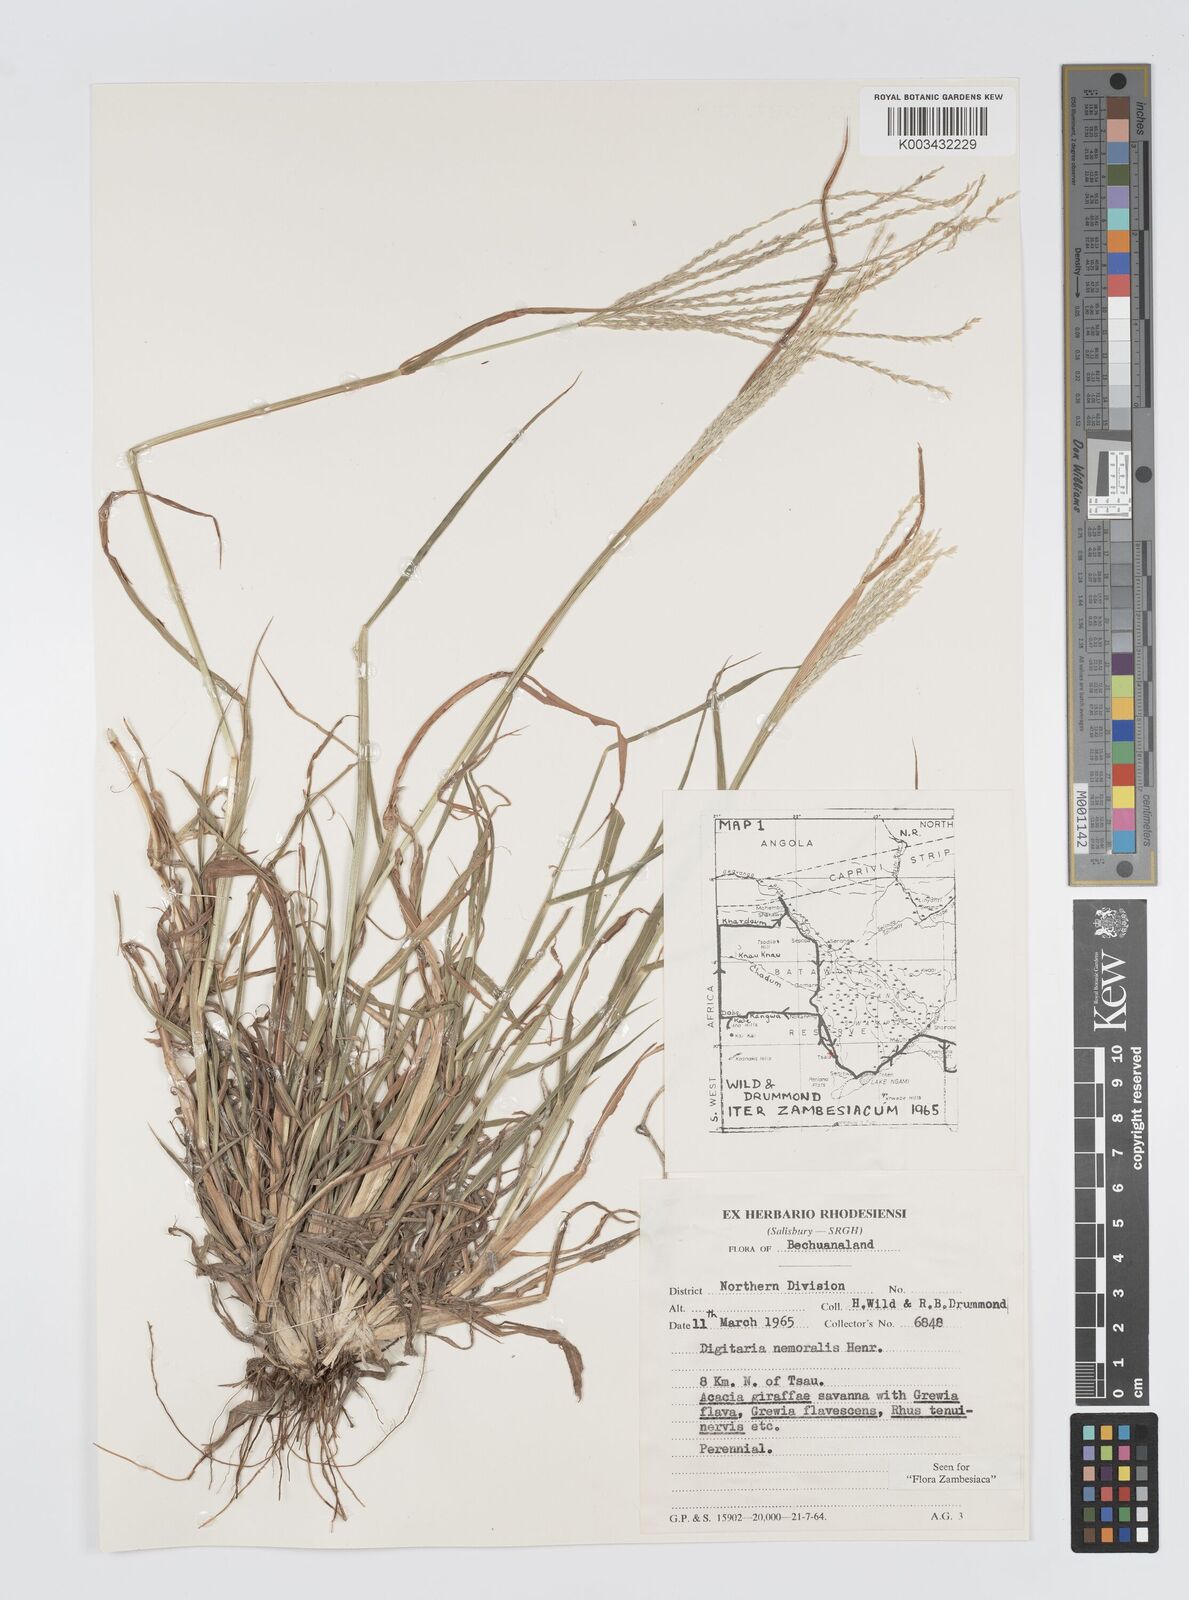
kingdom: Plantae
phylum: Tracheophyta
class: Liliopsida
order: Poales
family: Poaceae
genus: Digitaria
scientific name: Digitaria milanjiana
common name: Madagascar crabgrass
